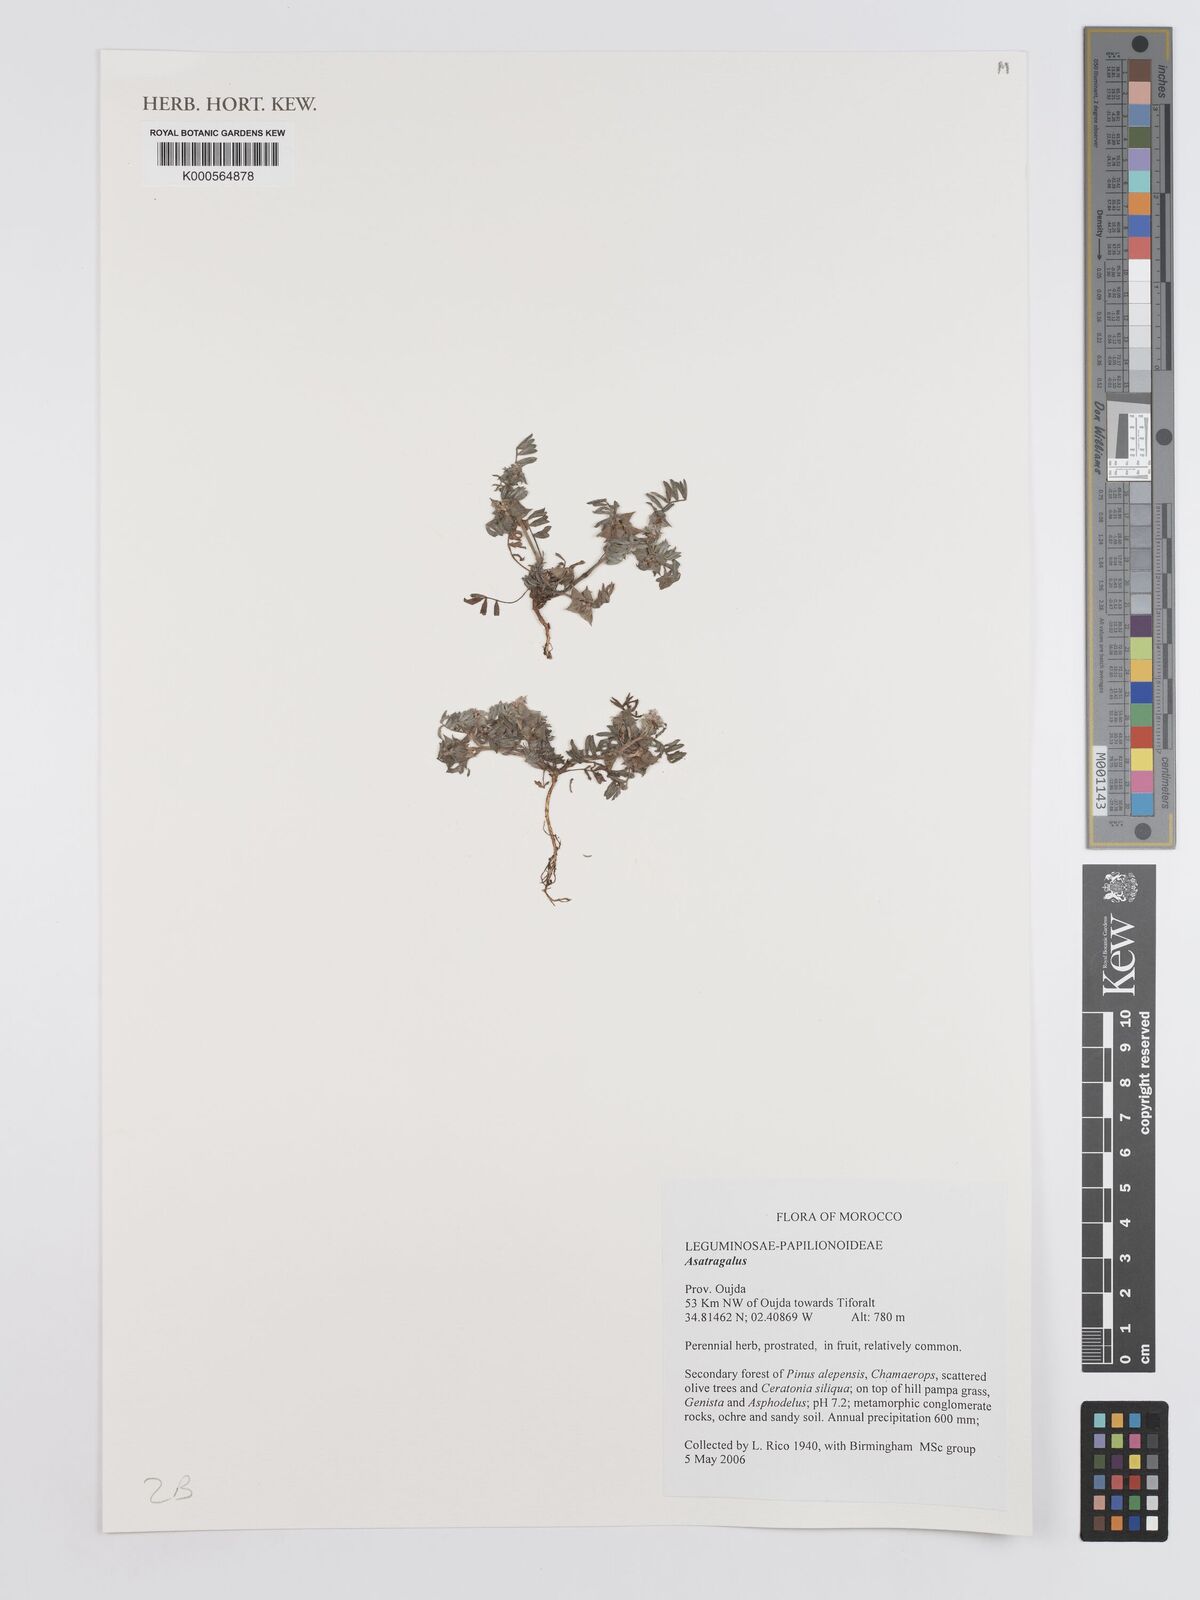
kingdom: Plantae
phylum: Tracheophyta
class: Magnoliopsida
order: Fabales
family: Fabaceae
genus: Astragalus
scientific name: Astragalus
